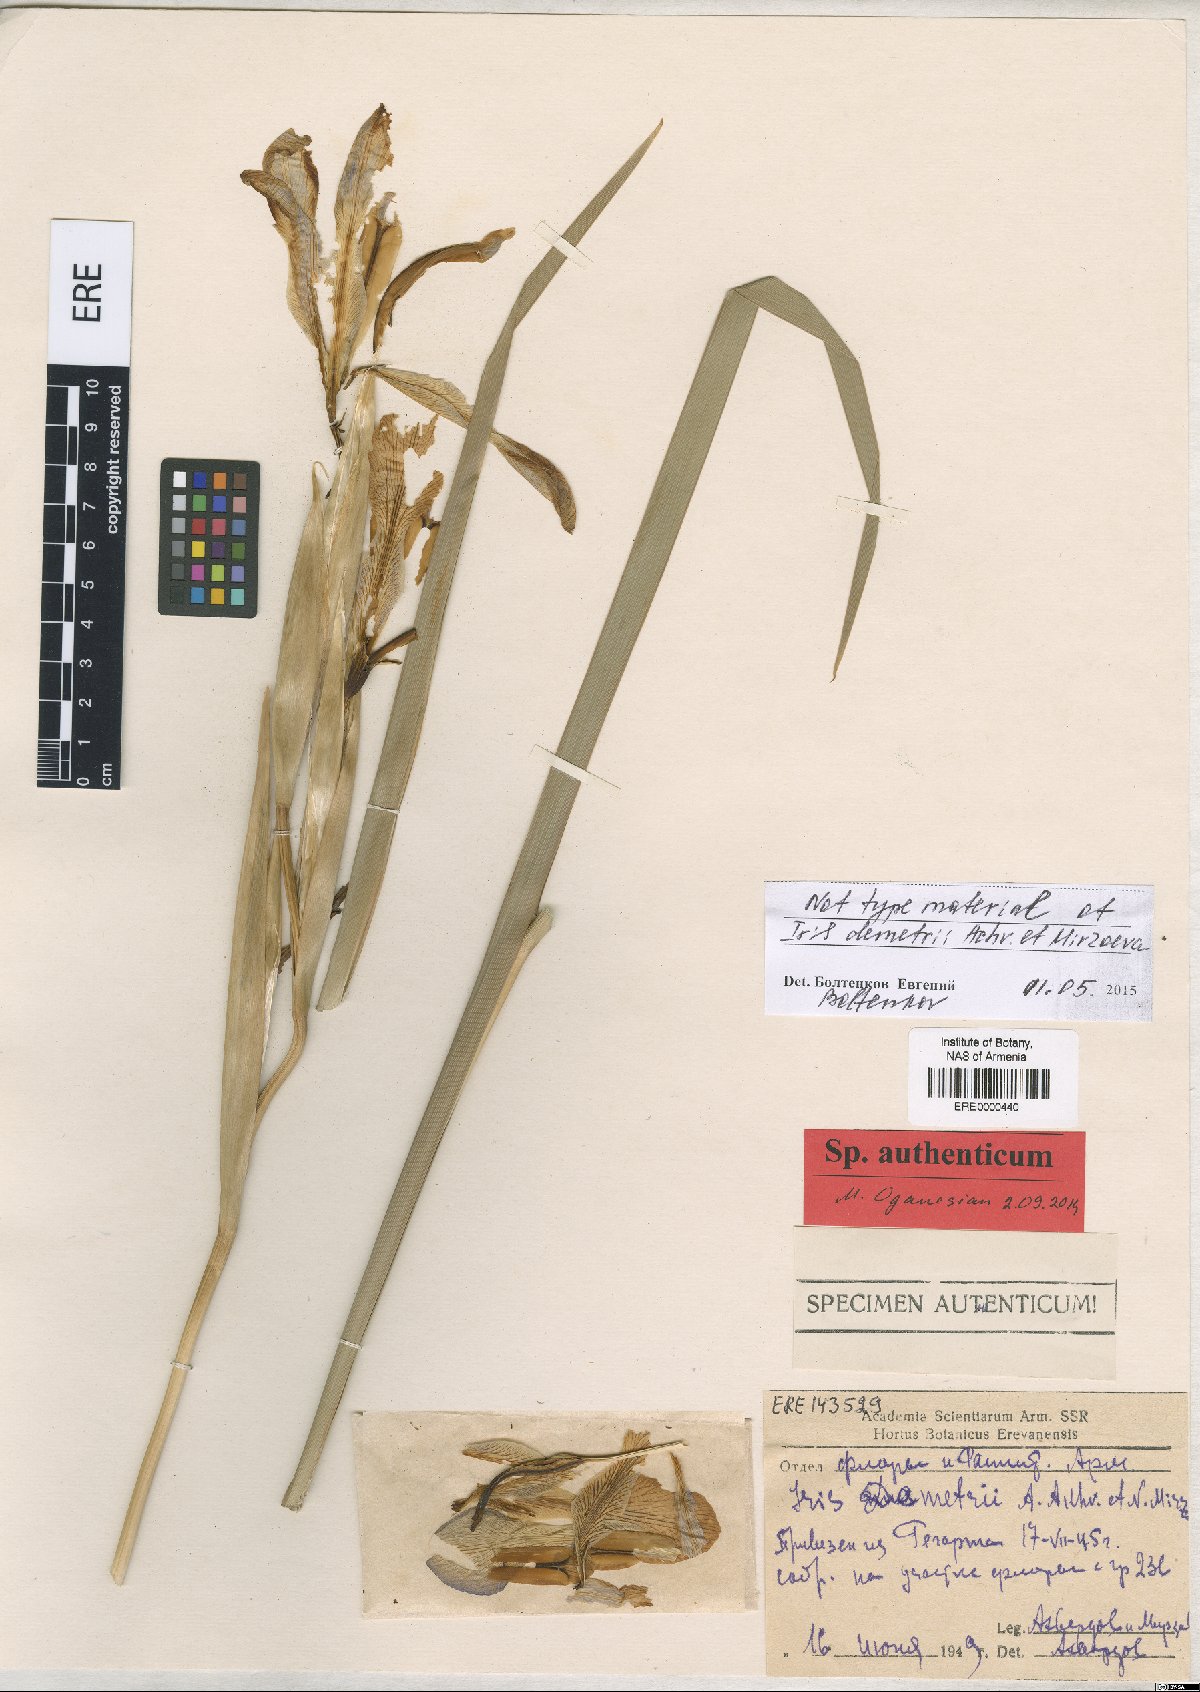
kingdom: Plantae
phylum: Tracheophyta
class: Liliopsida
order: Asparagales
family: Iridaceae
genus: Iris
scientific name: Iris spuria
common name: Blue iris
